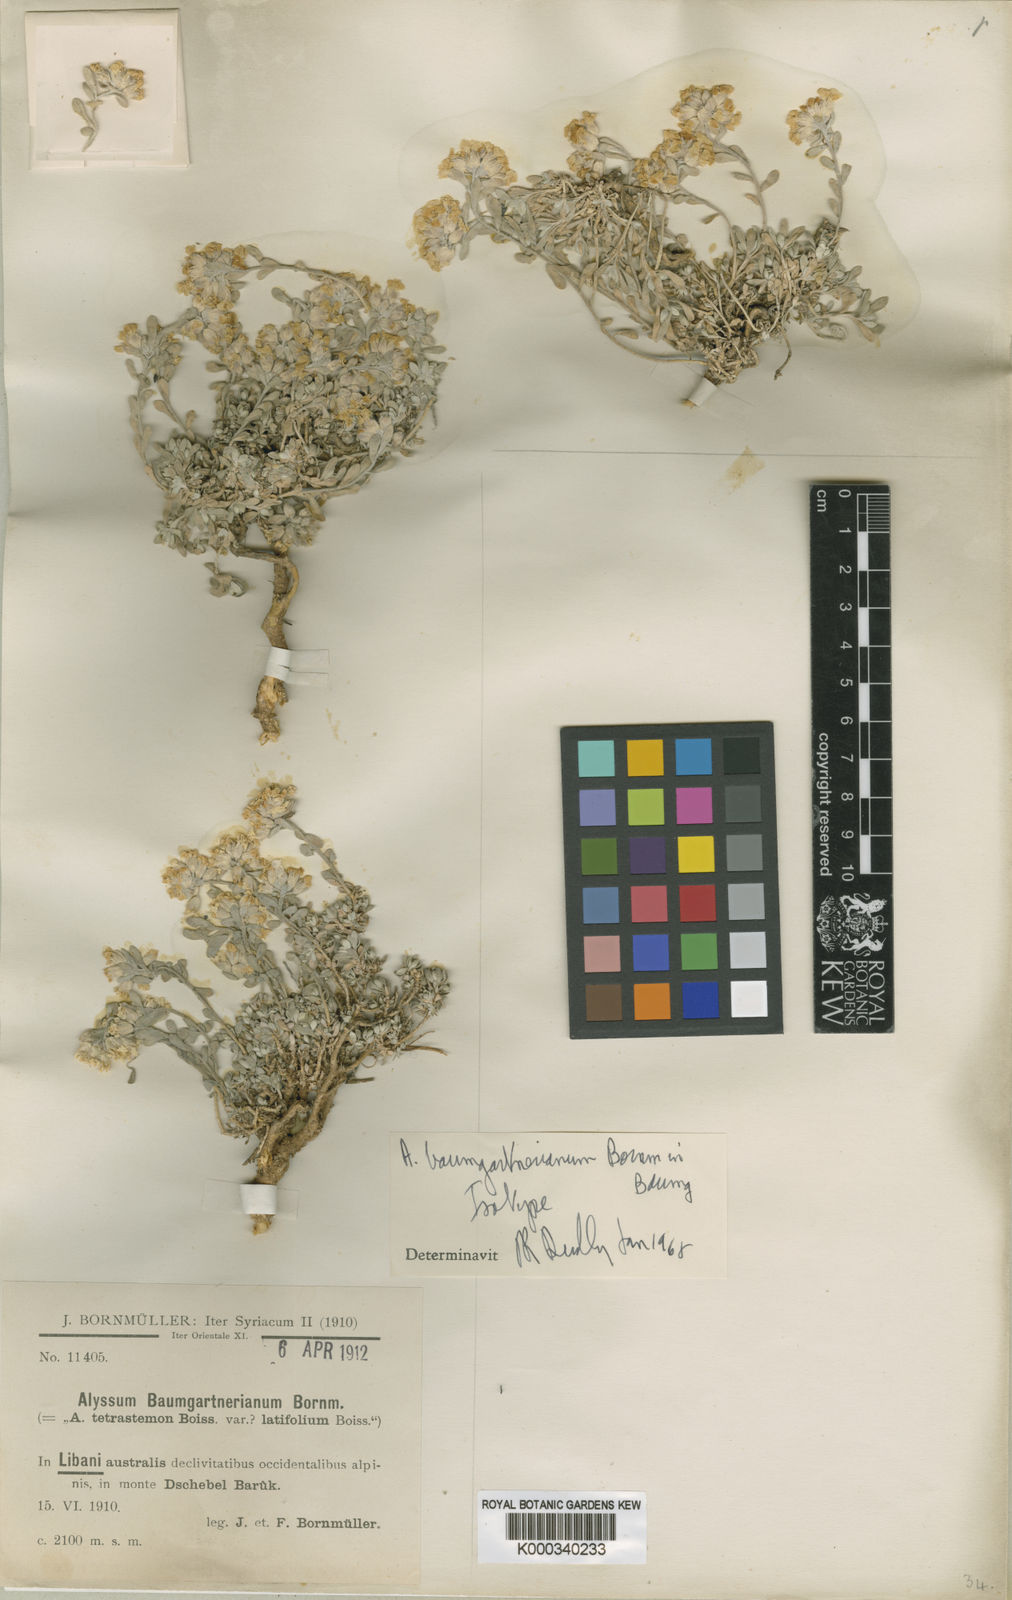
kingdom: Plantae
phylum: Tracheophyta
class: Magnoliopsida
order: Brassicales
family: Brassicaceae
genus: Alyssum
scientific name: Alyssum baumgartnerianum
